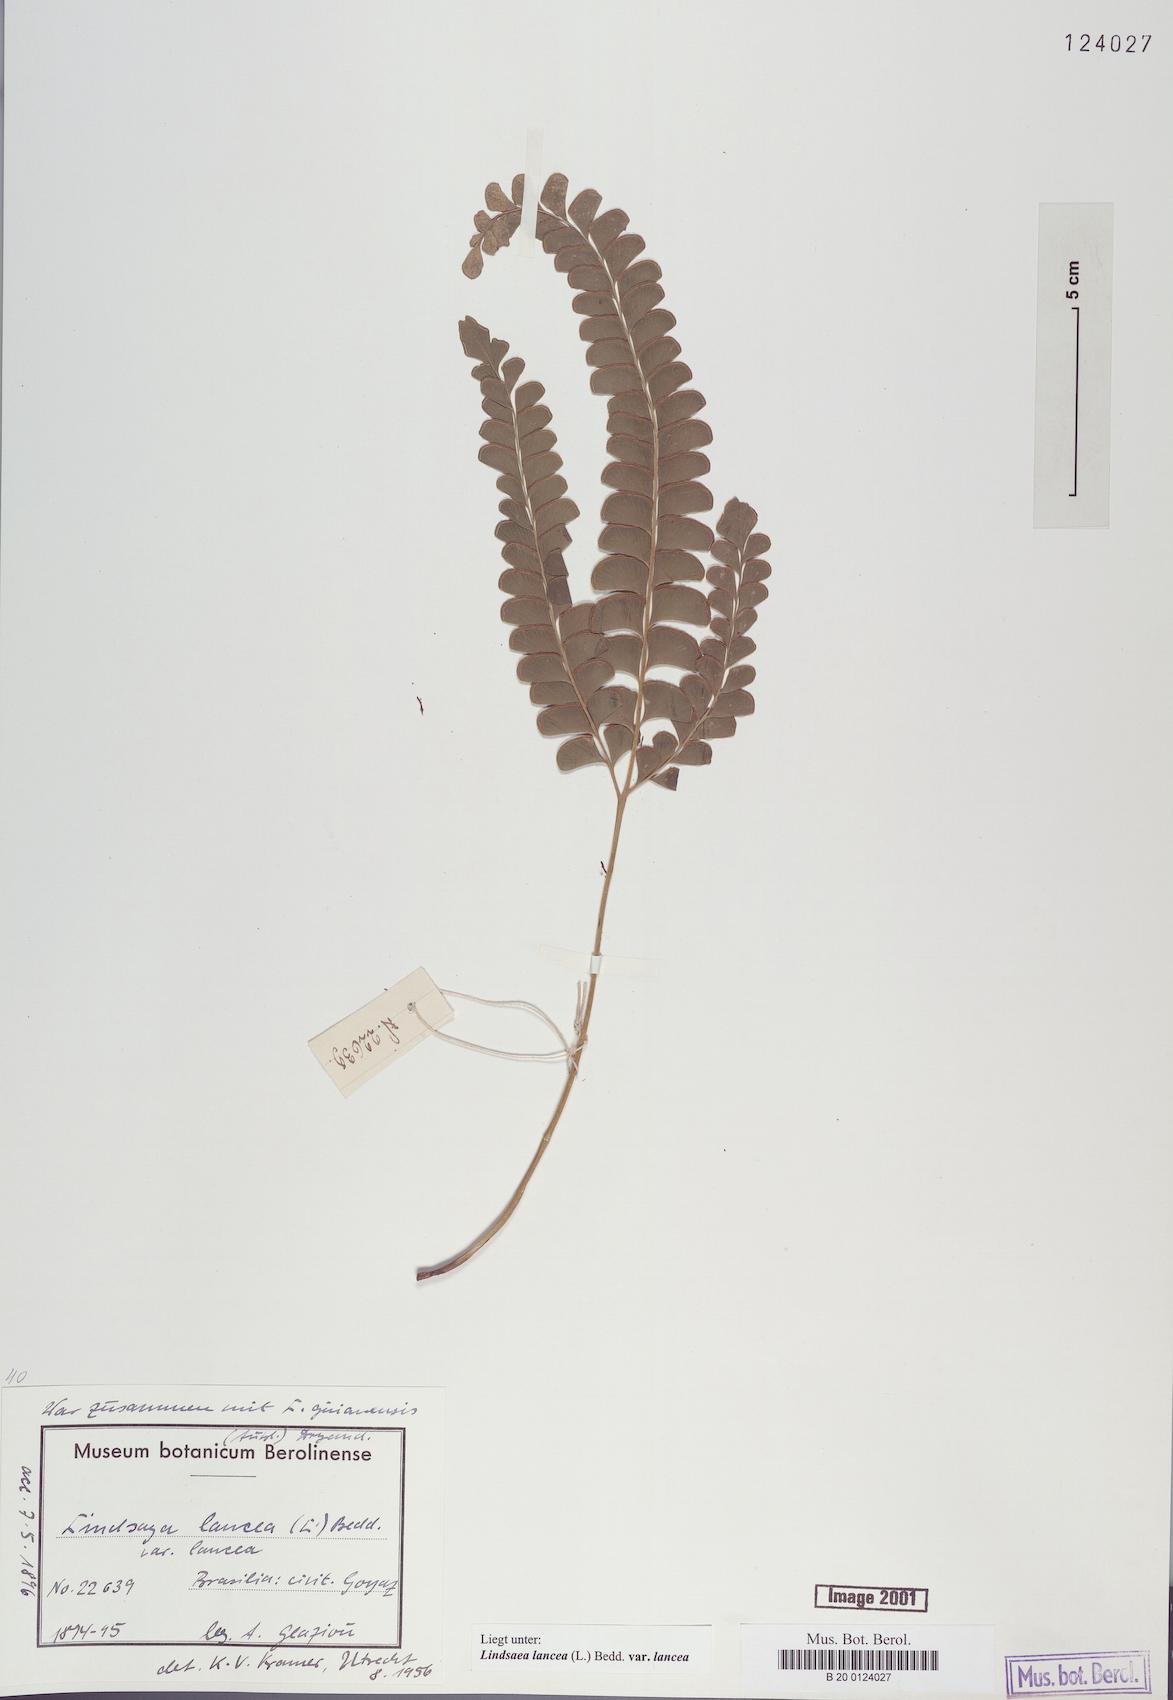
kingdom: Plantae
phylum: Tracheophyta
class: Polypodiopsida
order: Polypodiales
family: Lindsaeaceae
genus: Lindsaea
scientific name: Lindsaea lancea
